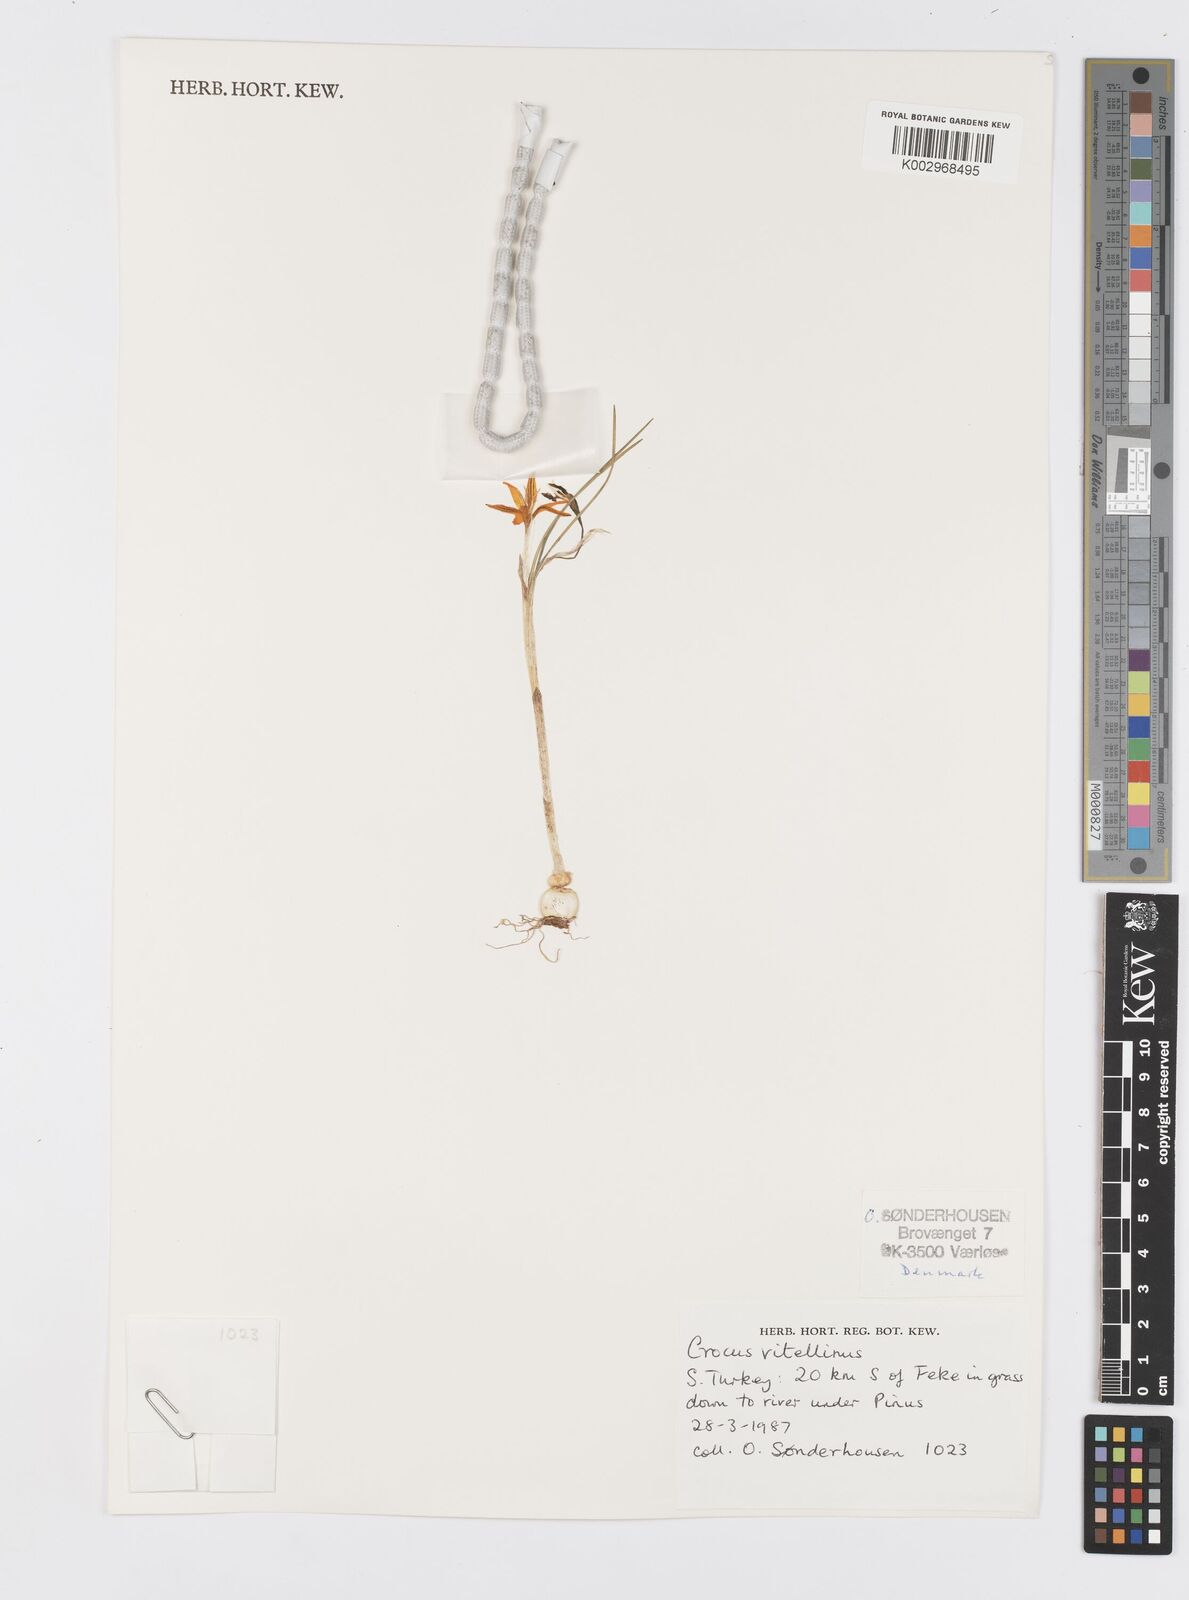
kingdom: Plantae
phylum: Tracheophyta
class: Liliopsida
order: Asparagales
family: Iridaceae
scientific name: Iridaceae
